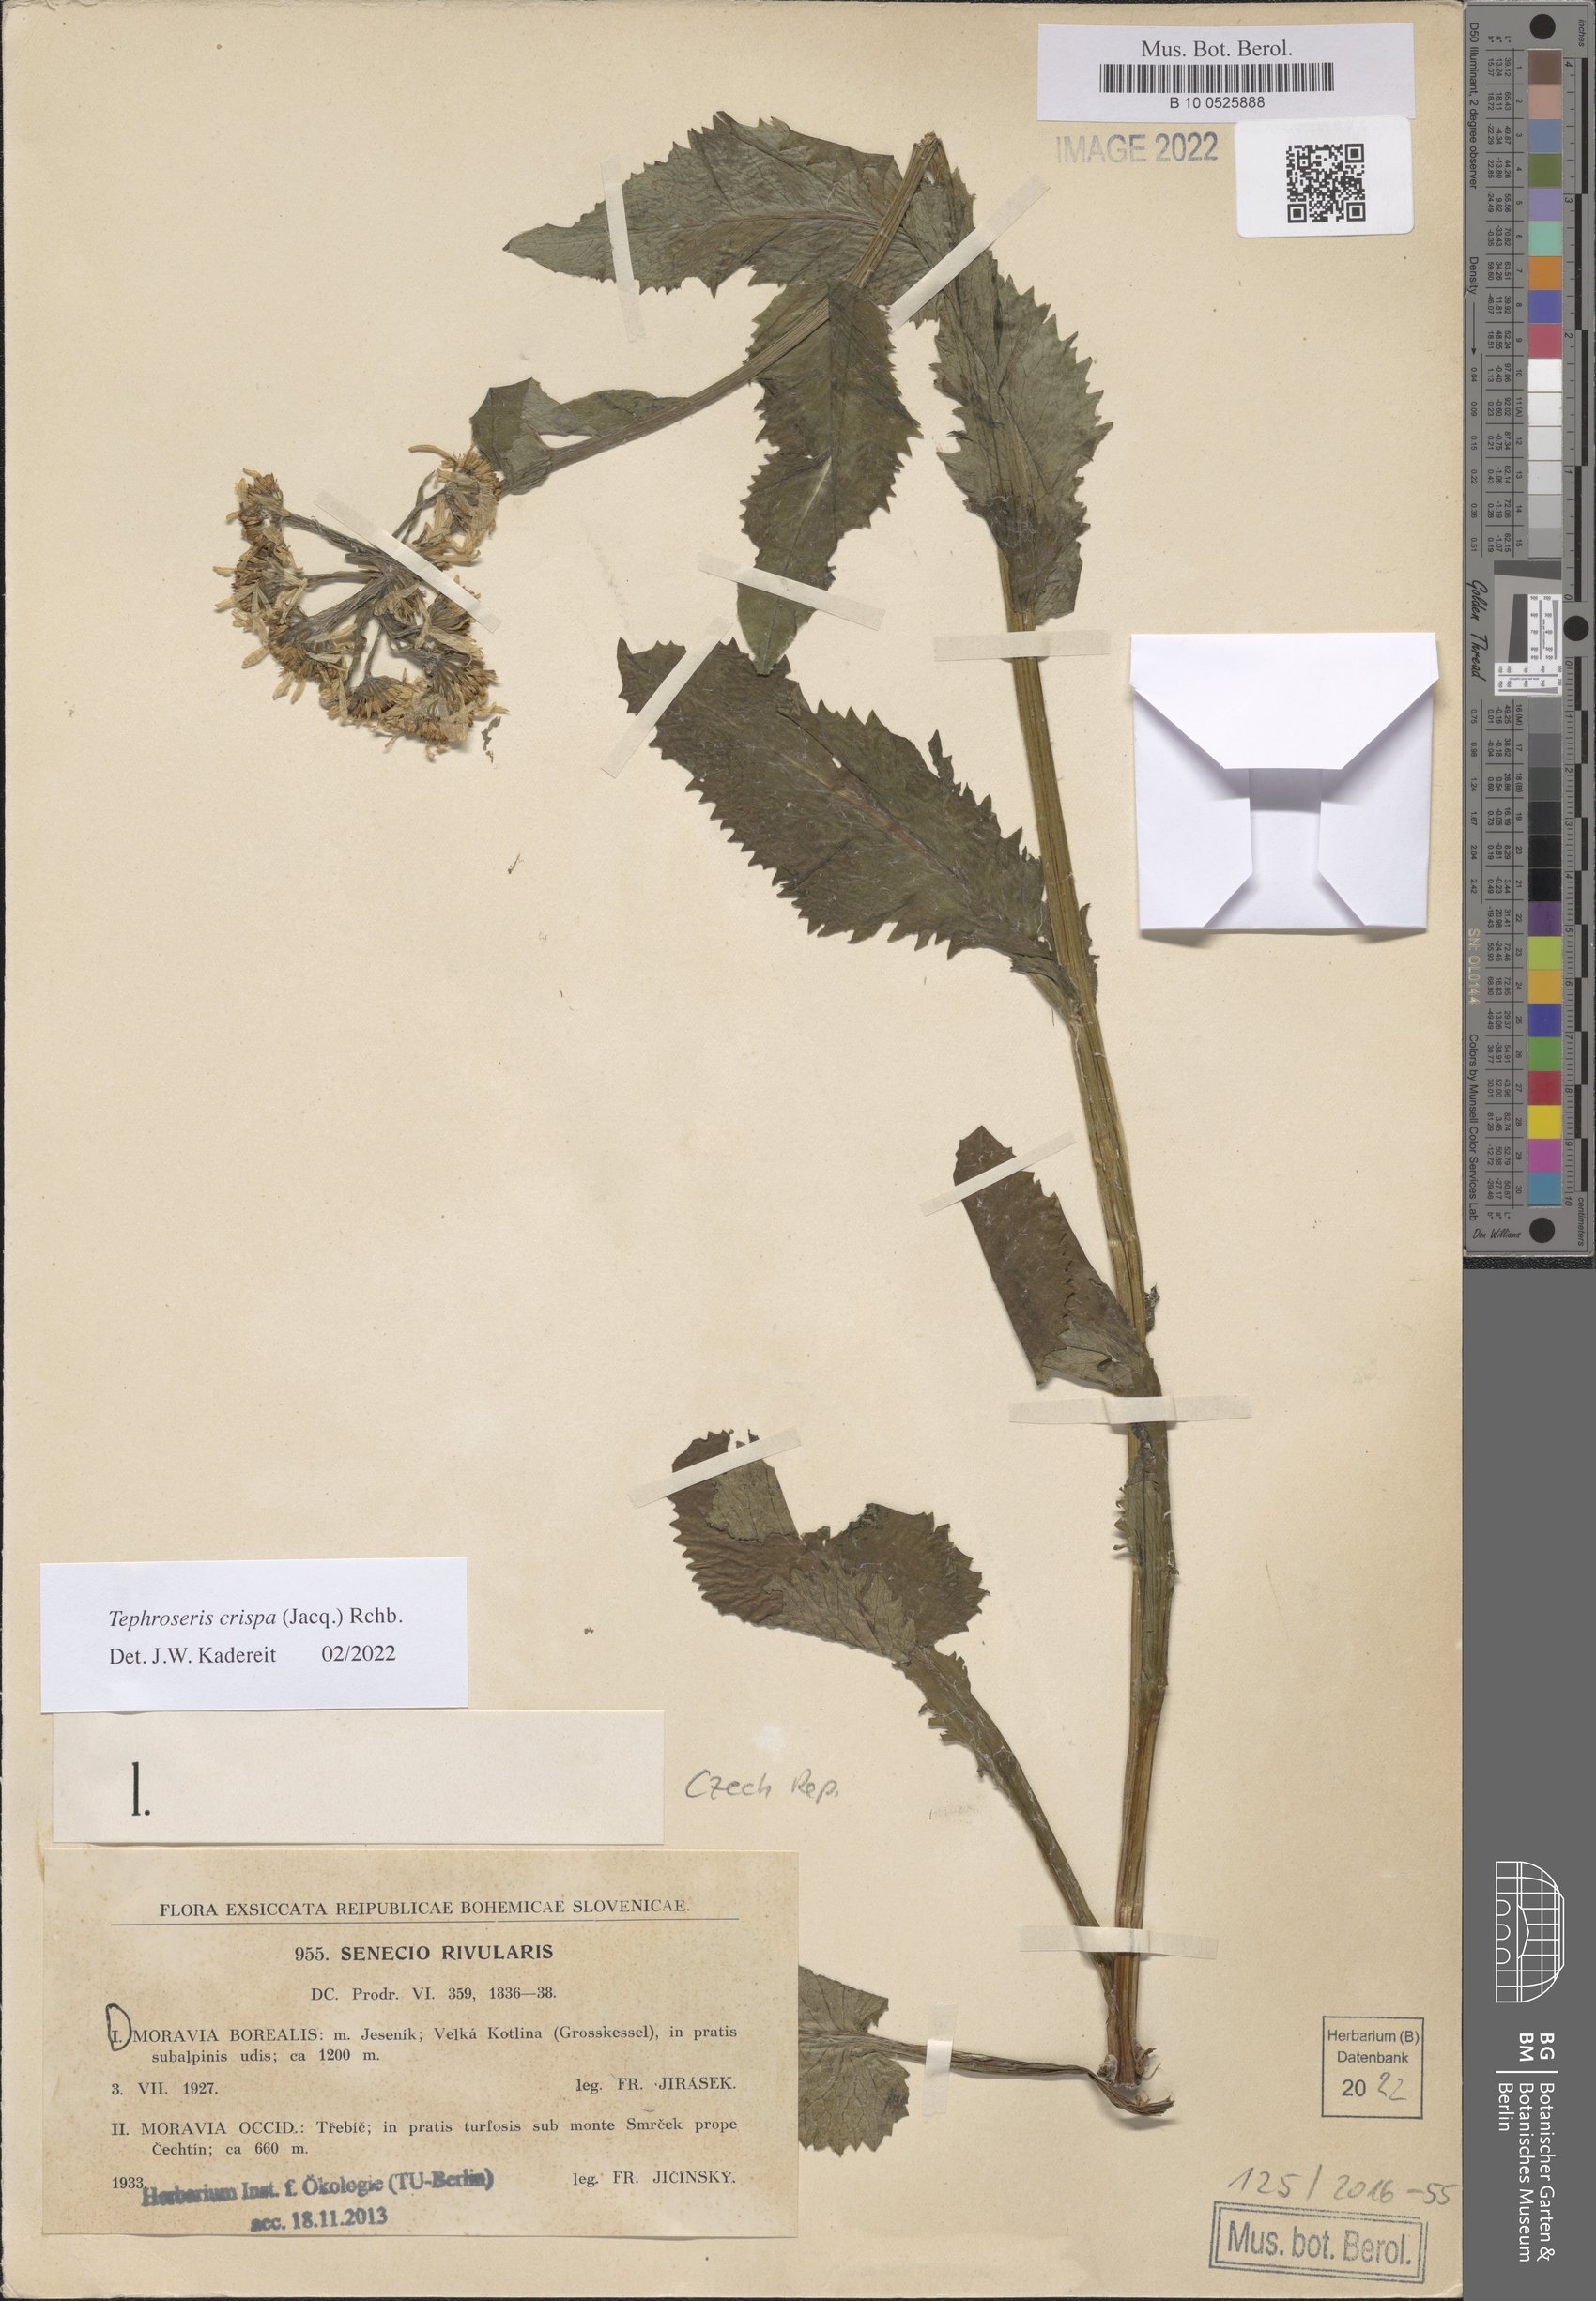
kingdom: Plantae
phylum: Tracheophyta
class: Magnoliopsida
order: Asterales
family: Asteraceae
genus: Tephroseris
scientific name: Tephroseris crispa
